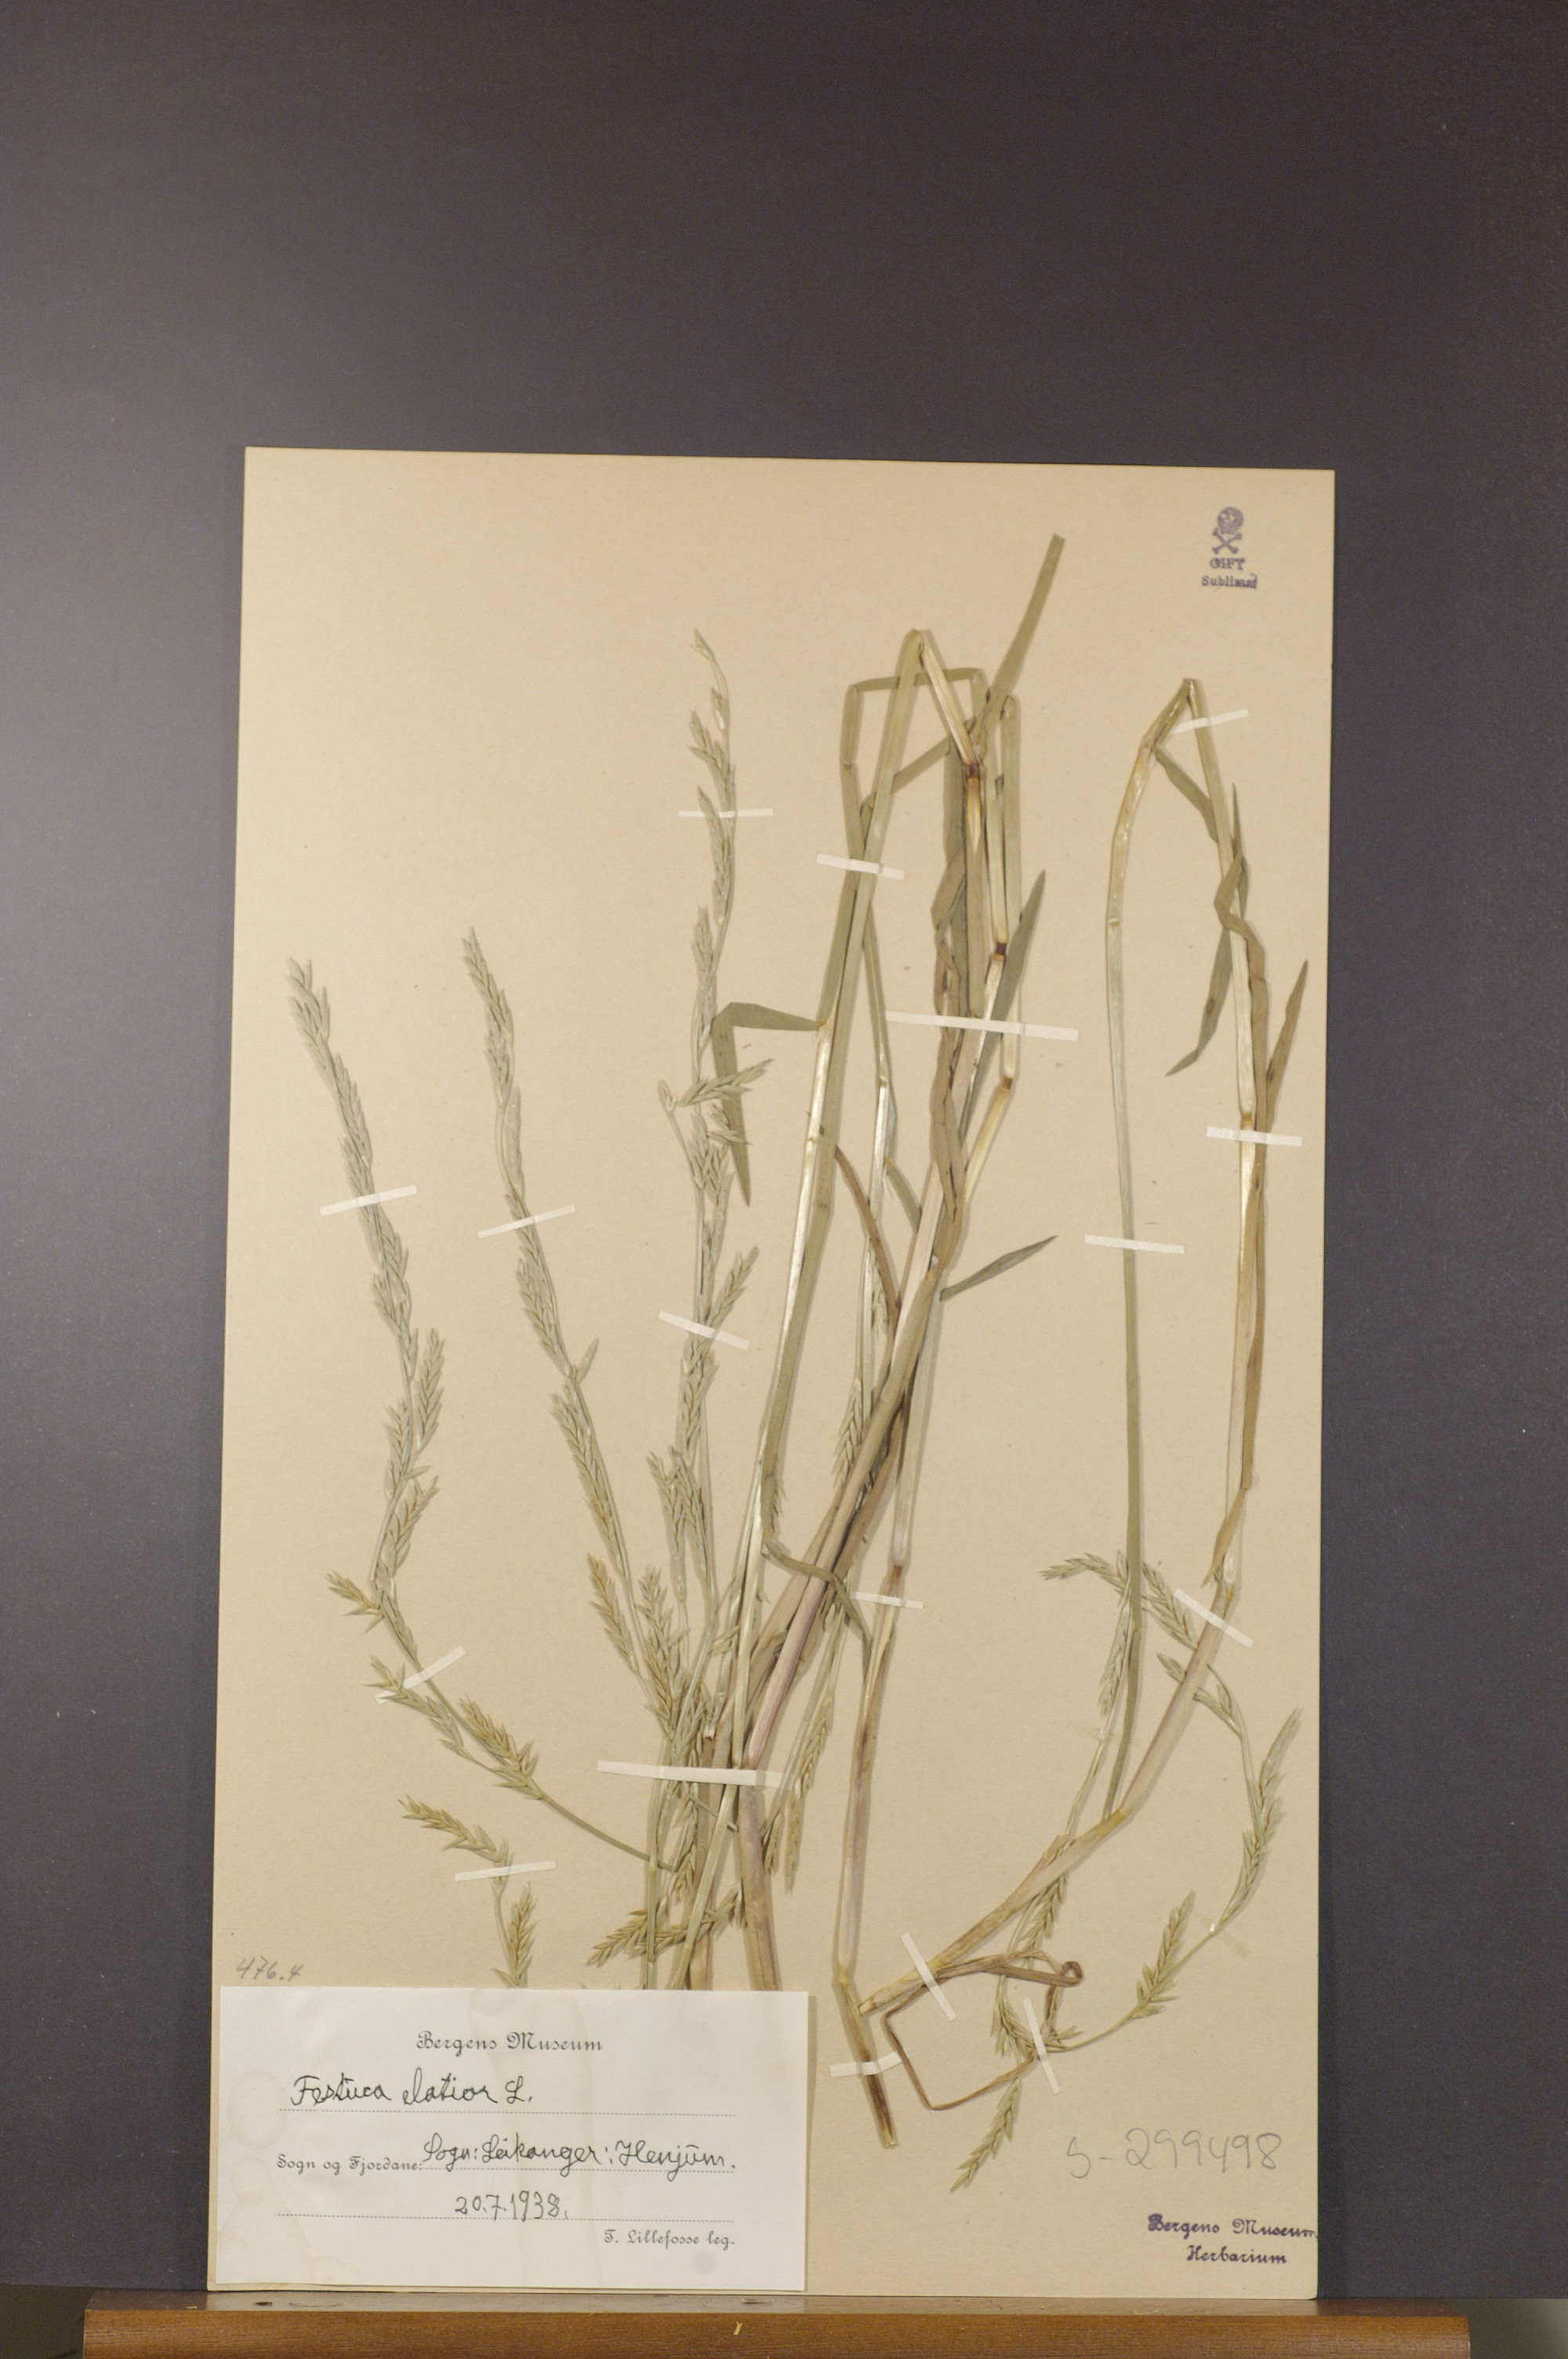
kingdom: Plantae
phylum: Tracheophyta
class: Liliopsida
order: Poales
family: Poaceae
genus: Lolium
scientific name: Lolium arundinaceum
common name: Reed fescue
